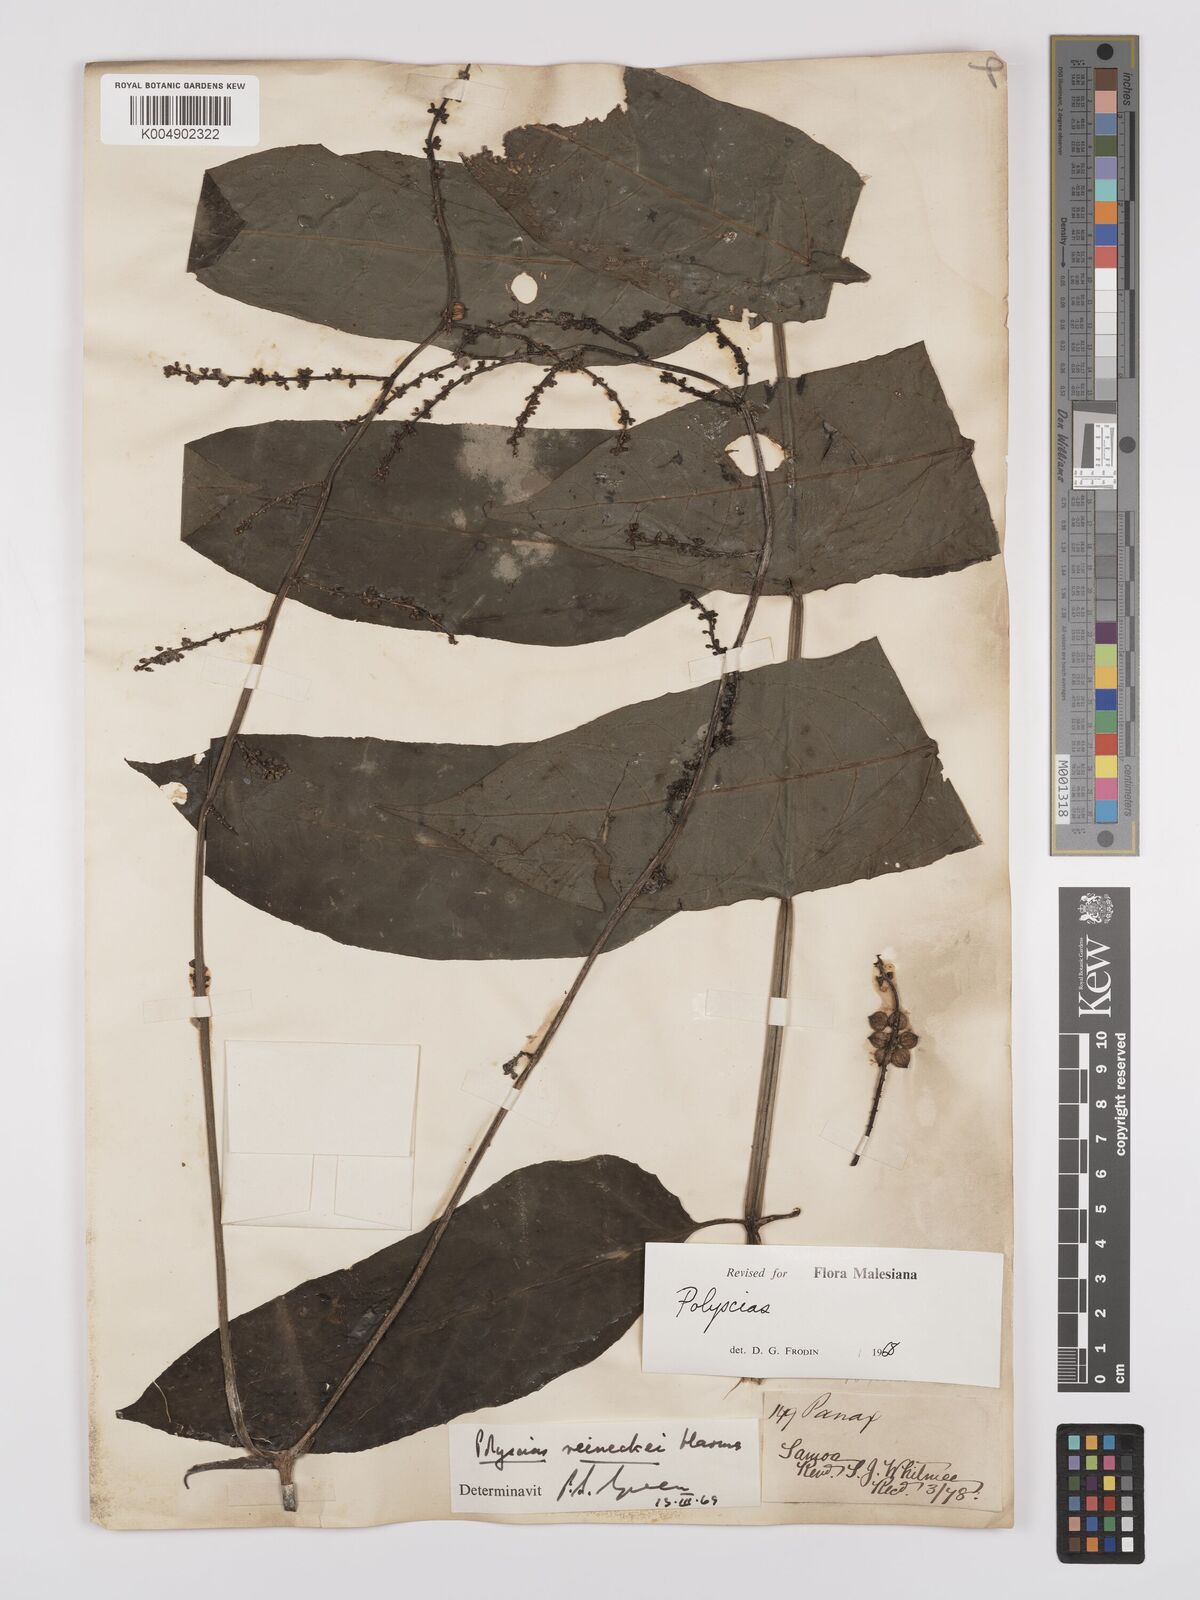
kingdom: Plantae
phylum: Tracheophyta
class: Magnoliopsida
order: Apiales
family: Araliaceae
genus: Polyscias
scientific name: Polyscias
